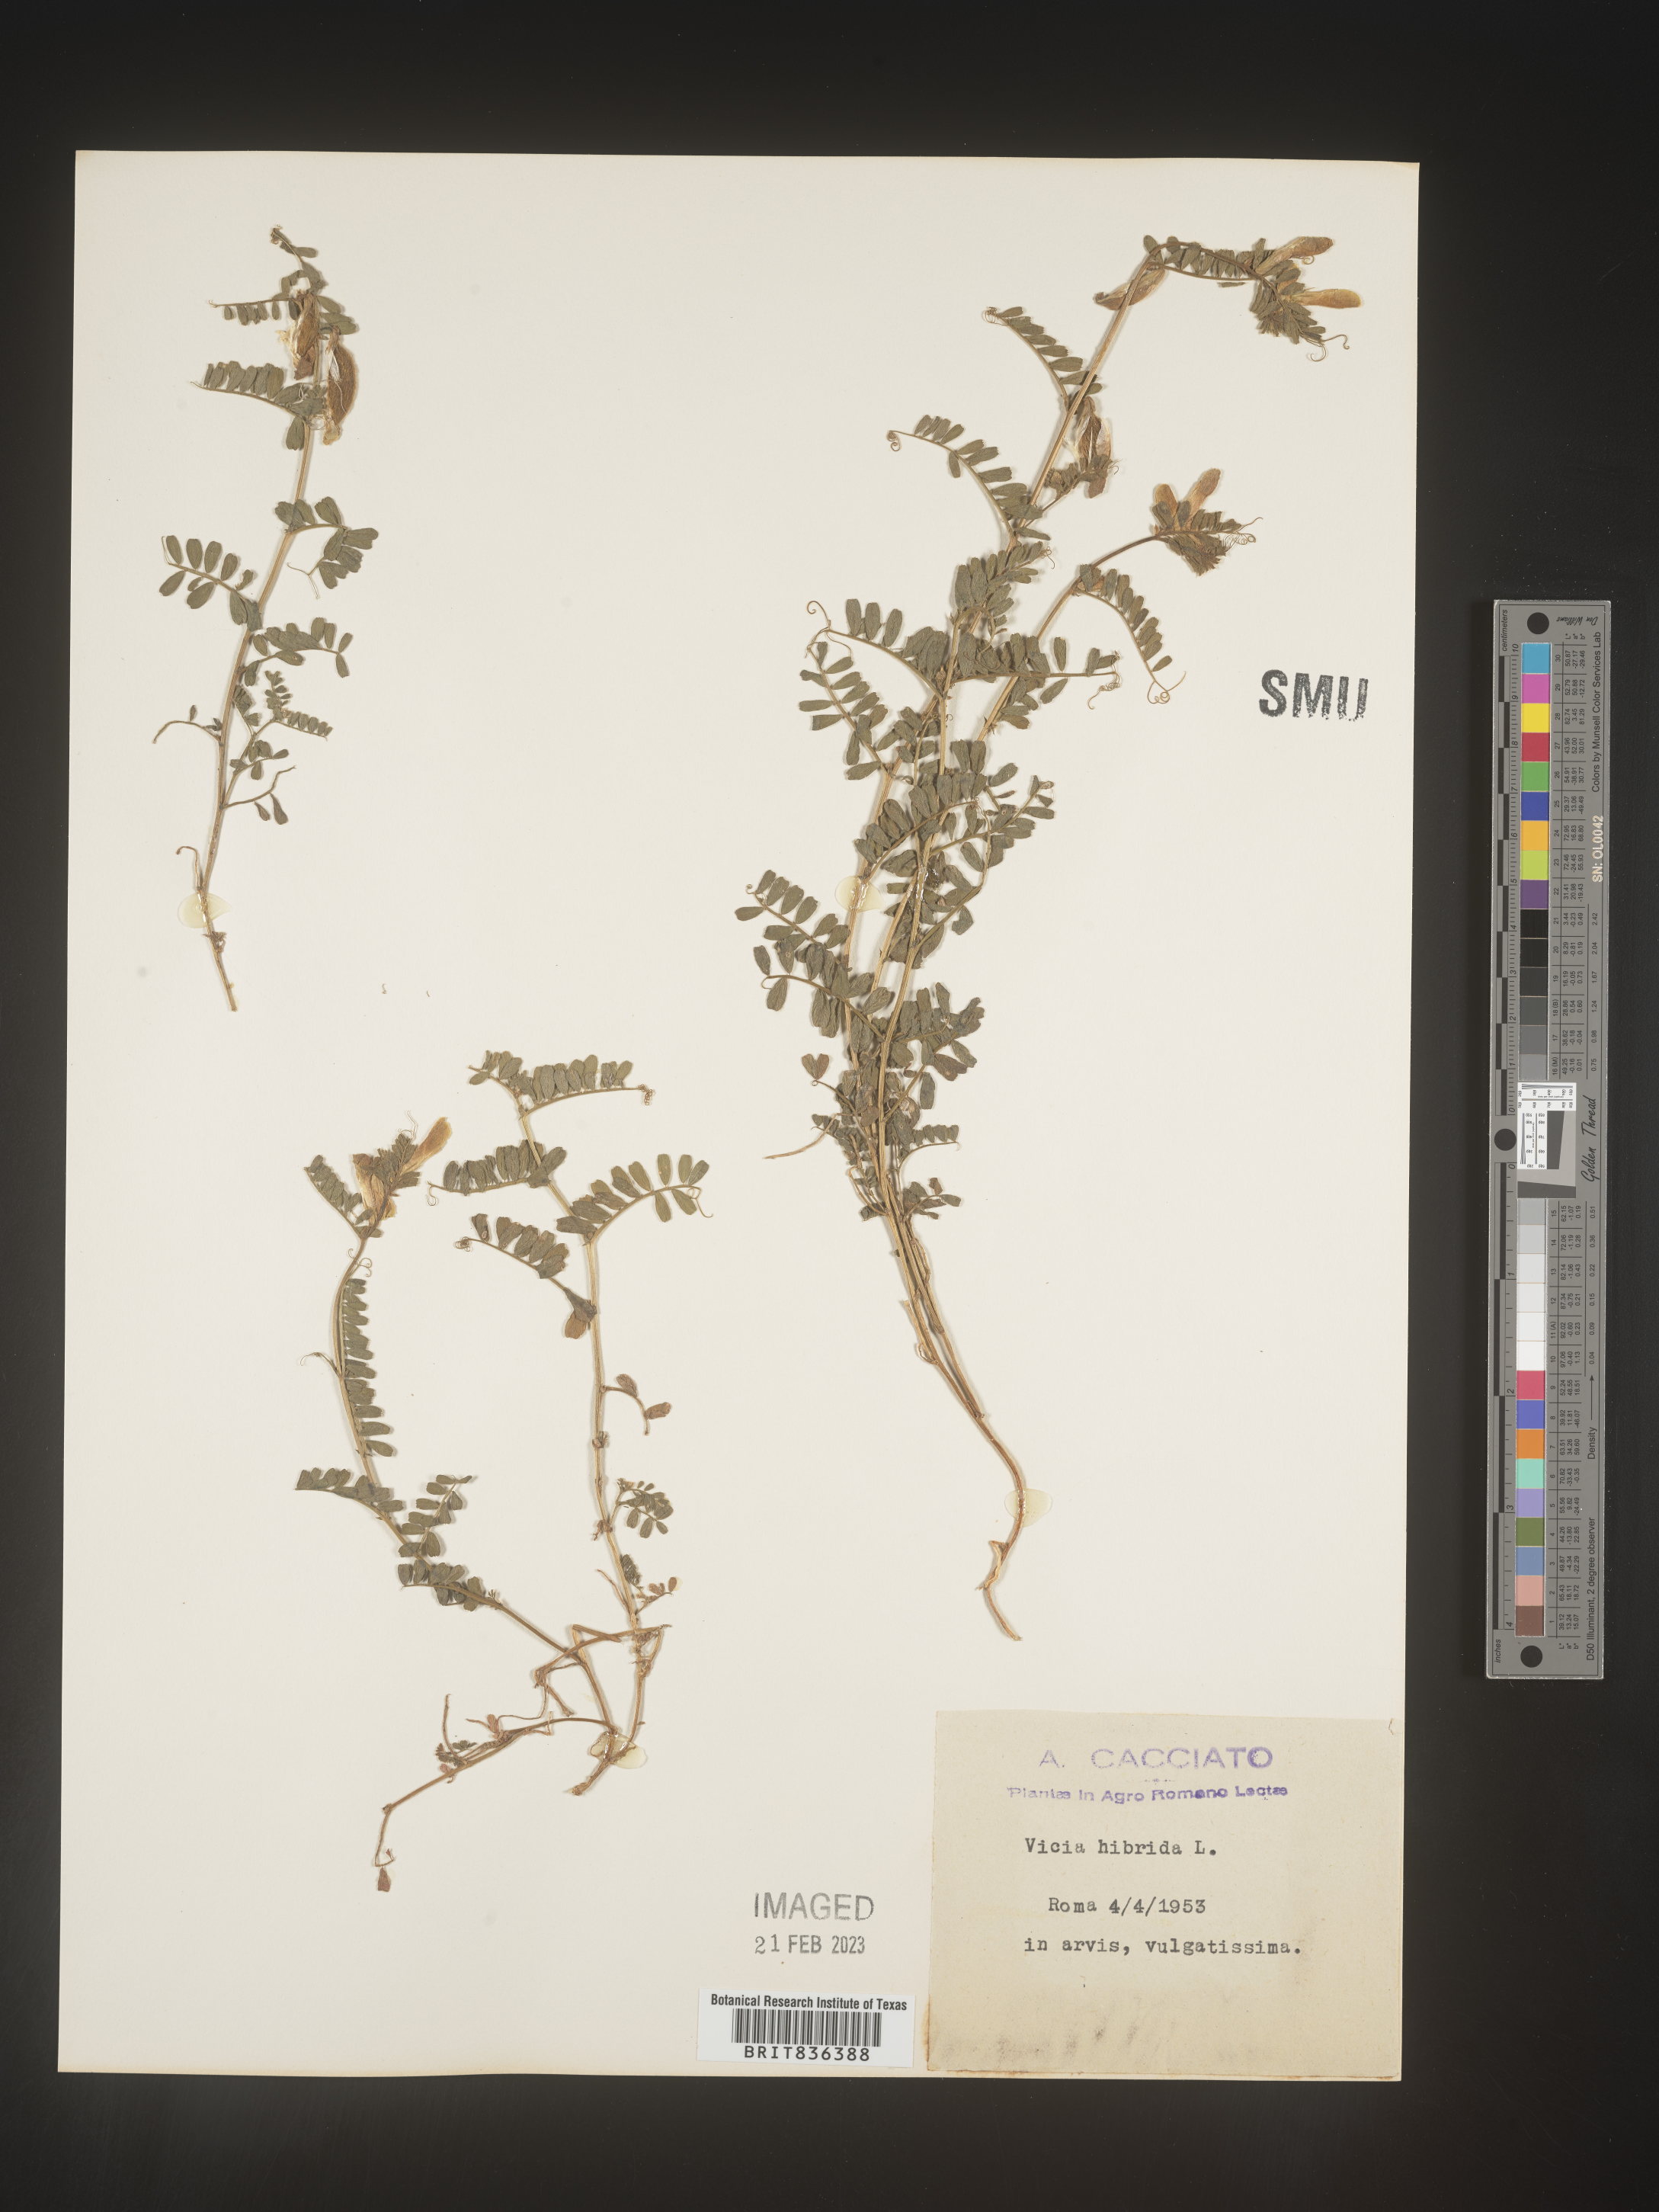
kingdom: Plantae
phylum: Tracheophyta
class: Magnoliopsida
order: Fabales
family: Fabaceae
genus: Vicia
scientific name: Vicia
